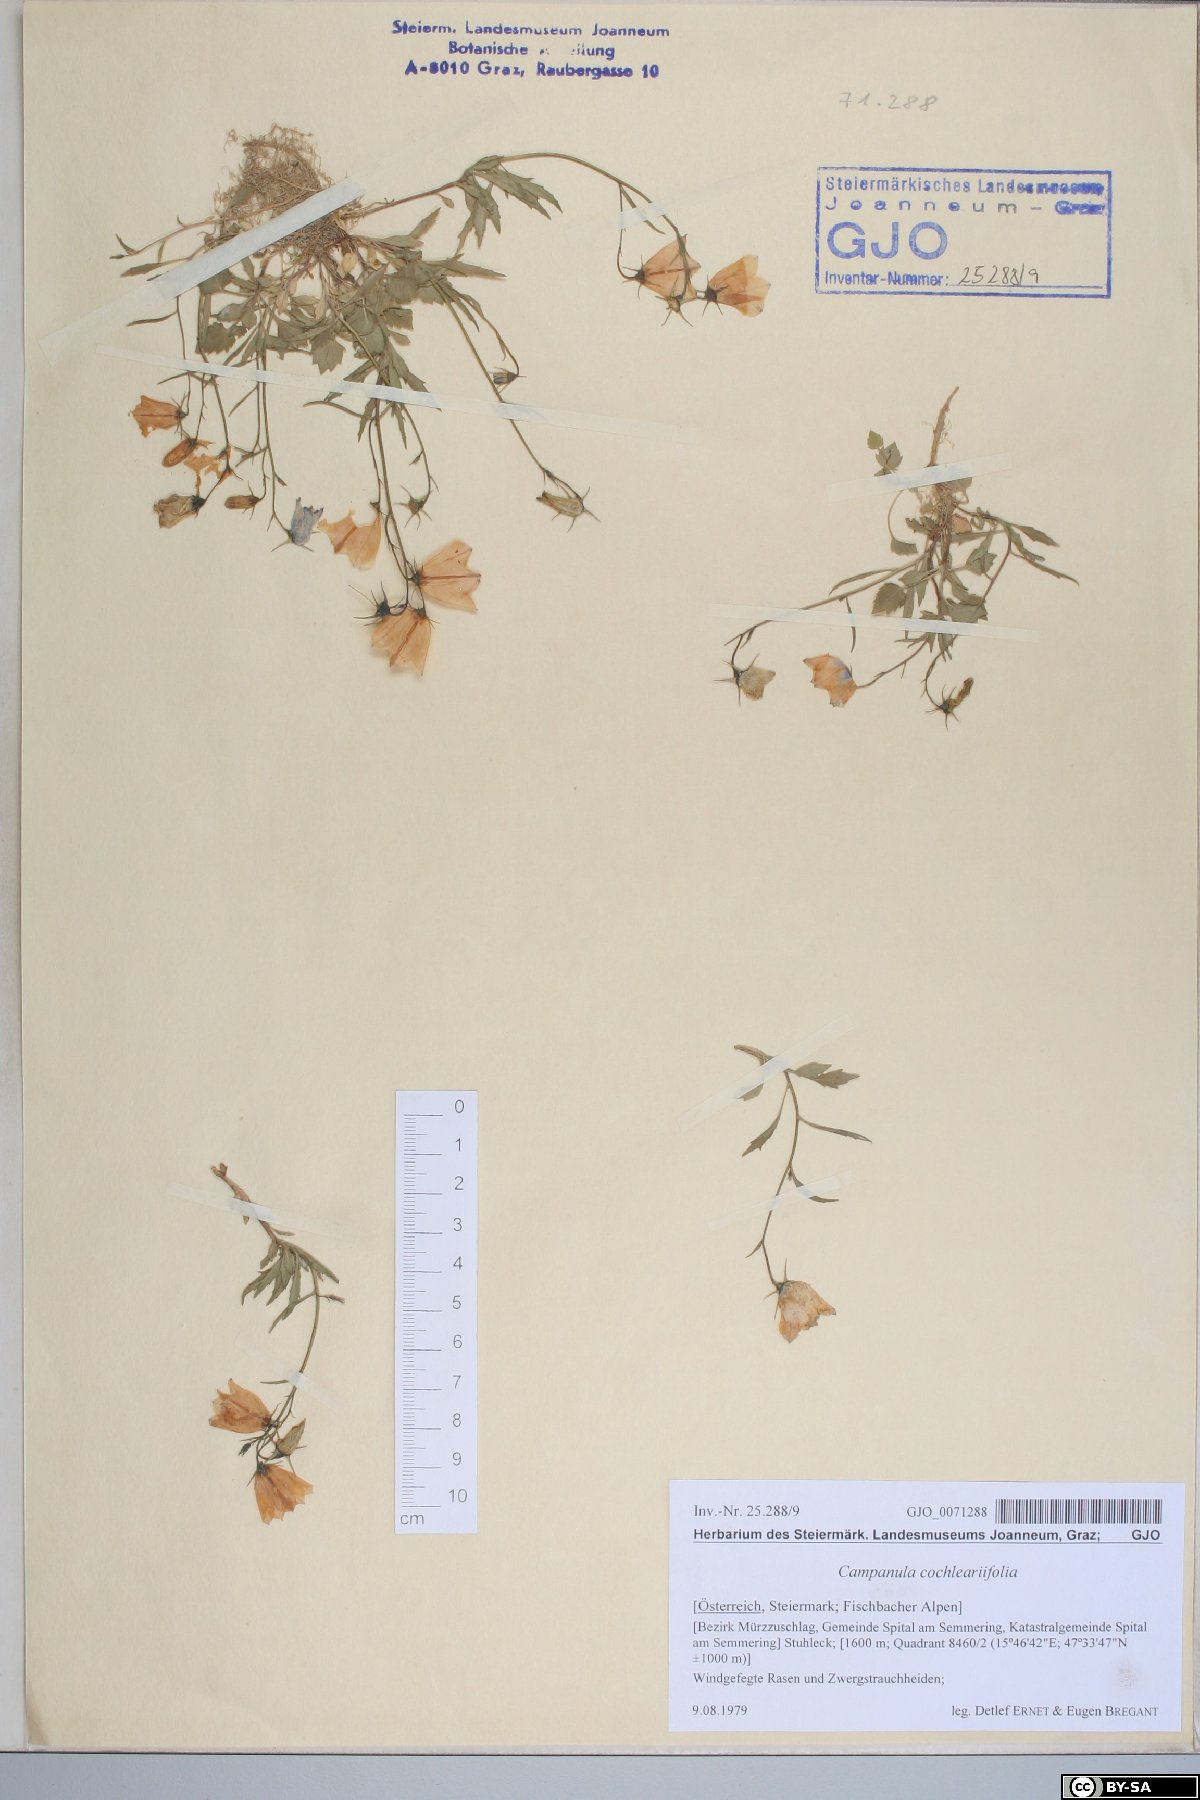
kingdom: Plantae
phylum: Tracheophyta
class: Magnoliopsida
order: Asterales
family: Campanulaceae
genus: Campanula
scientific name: Campanula cochleariifolia
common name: Fairies'-thimbles
